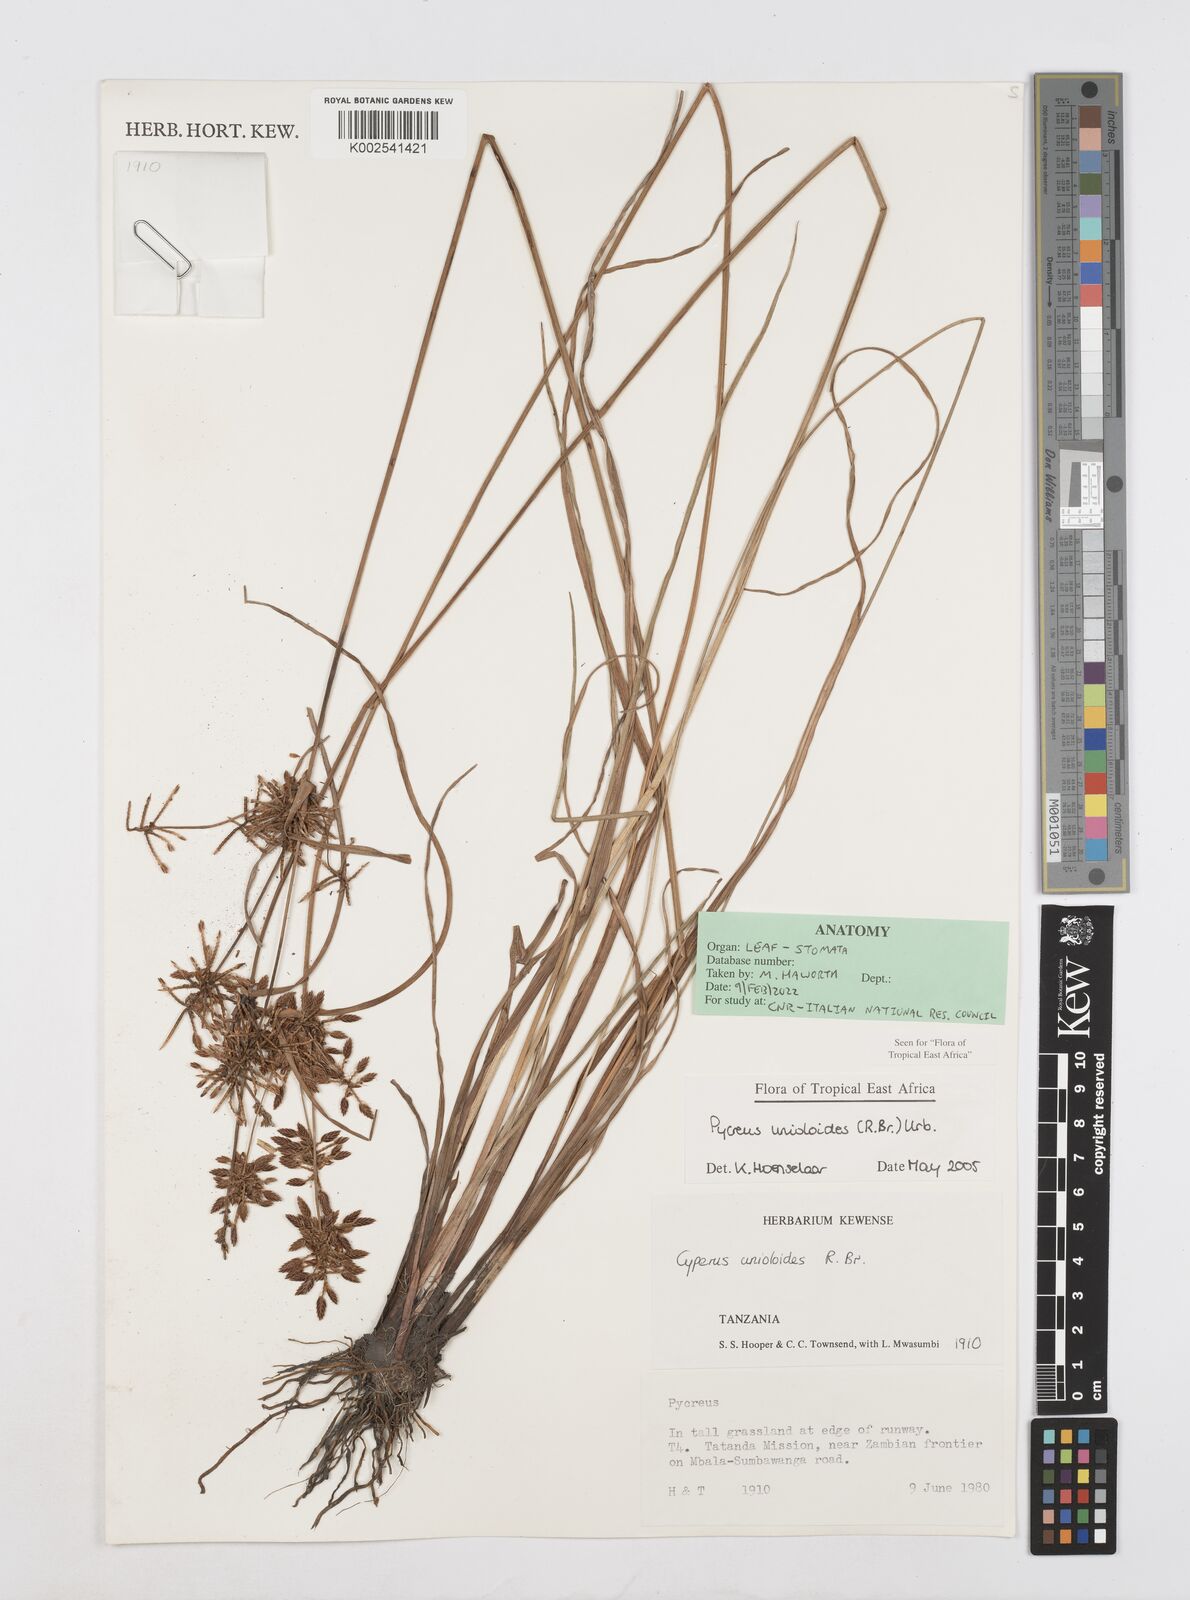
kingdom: Plantae
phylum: Tracheophyta
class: Liliopsida
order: Poales
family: Cyperaceae
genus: Cyperus
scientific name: Cyperus unioloides
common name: Uniola flatsedge
